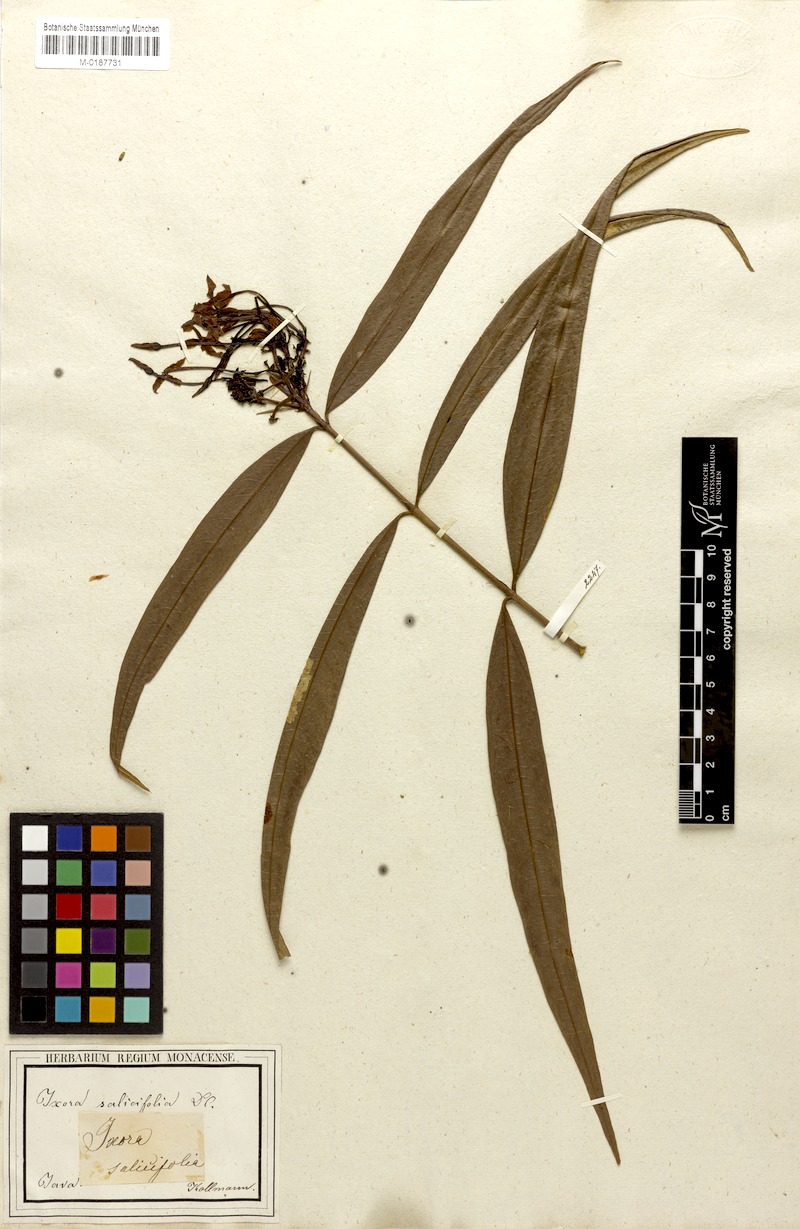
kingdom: Plantae
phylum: Tracheophyta
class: Magnoliopsida
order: Gentianales
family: Rubiaceae
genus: Ixora
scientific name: Ixora salicifolia
